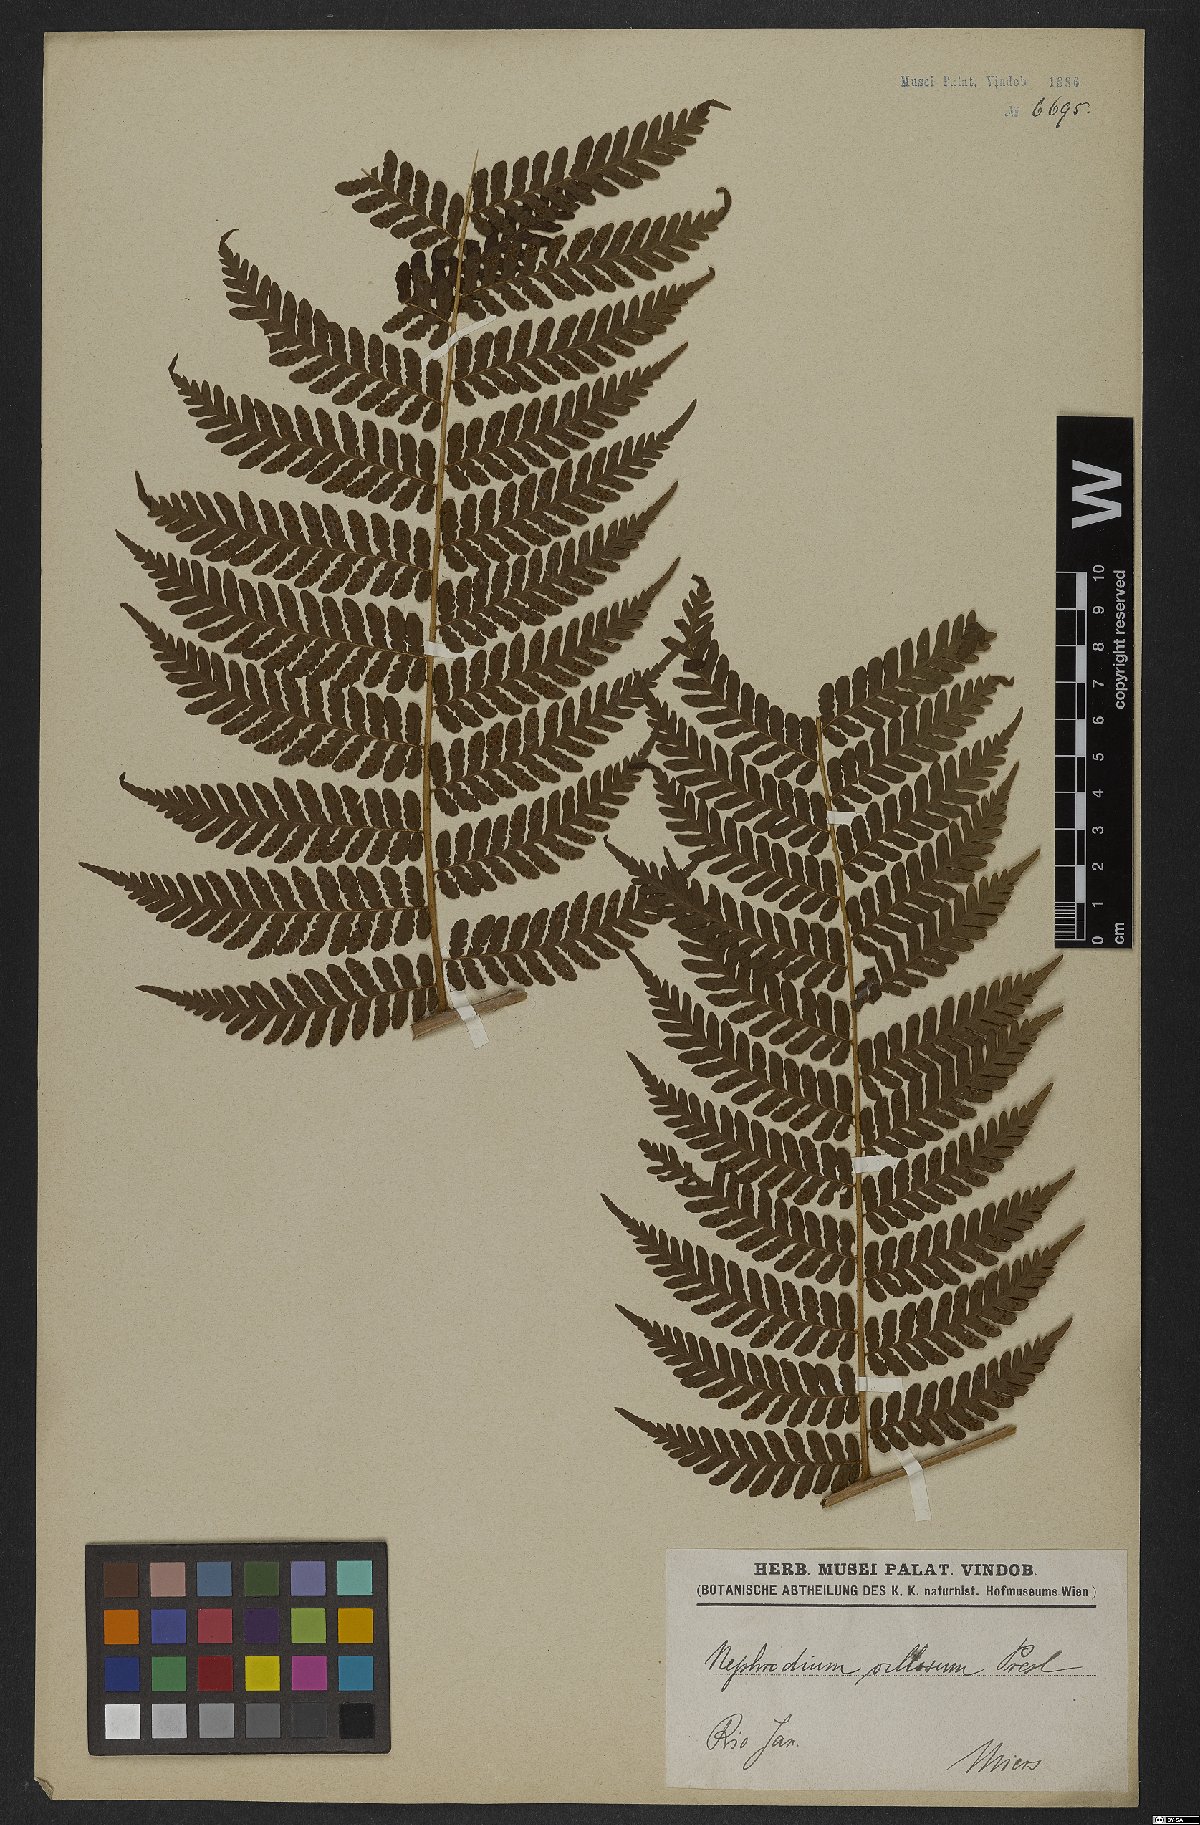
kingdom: Plantae
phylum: Tracheophyta
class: Polypodiopsida
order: Polypodiales
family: Dryopteridaceae
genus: Megalastrum
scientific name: Megalastrum villosum
